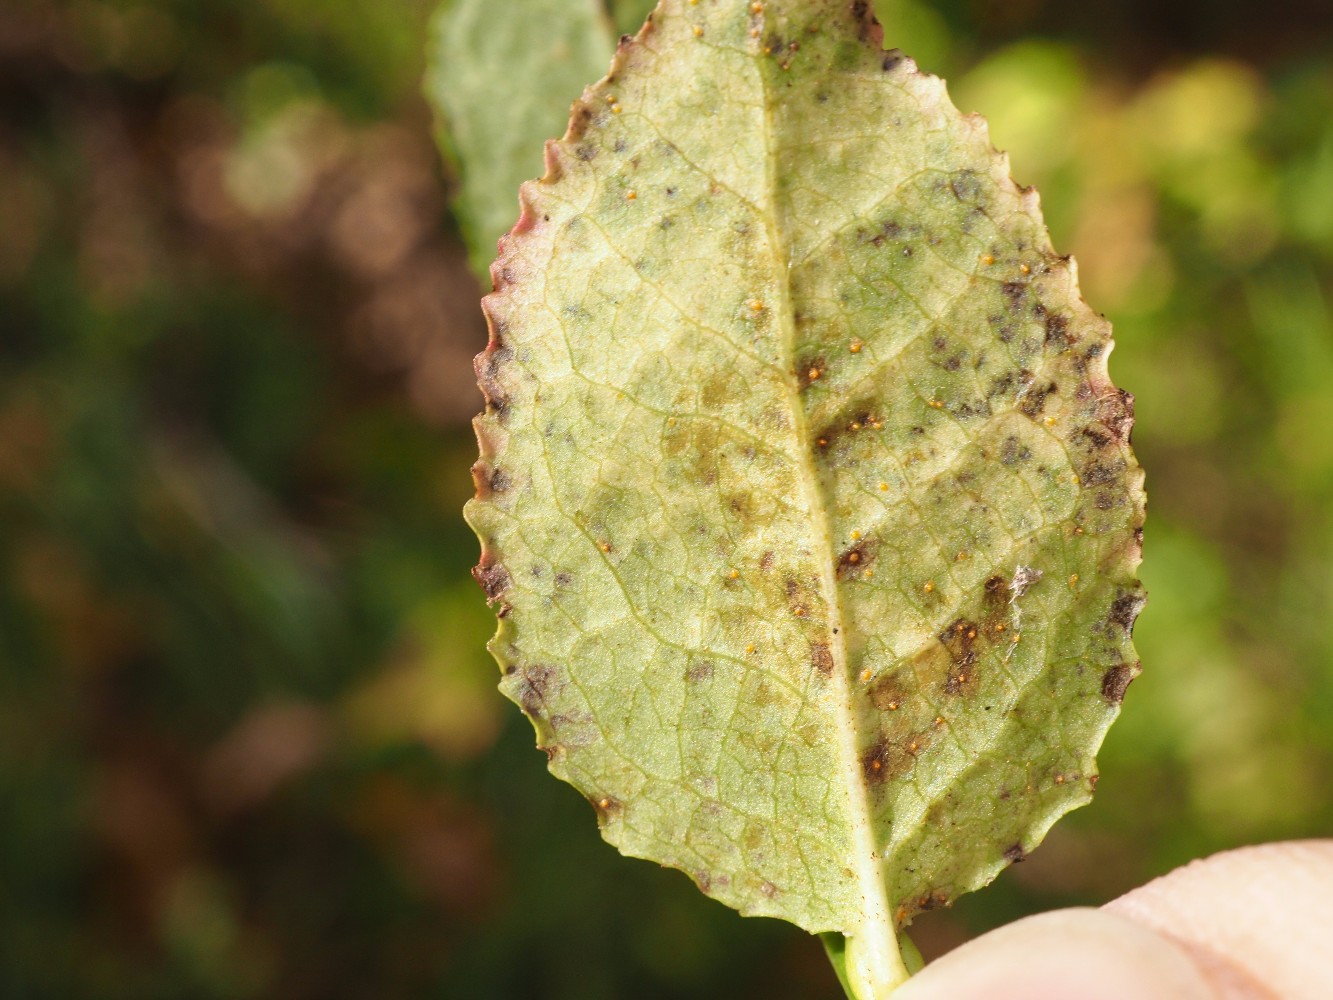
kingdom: Fungi
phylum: Basidiomycota
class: Pucciniomycetes
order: Pucciniales
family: Pucciniastraceae
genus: Naohidemyces
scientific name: Naohidemyces vaccinii
